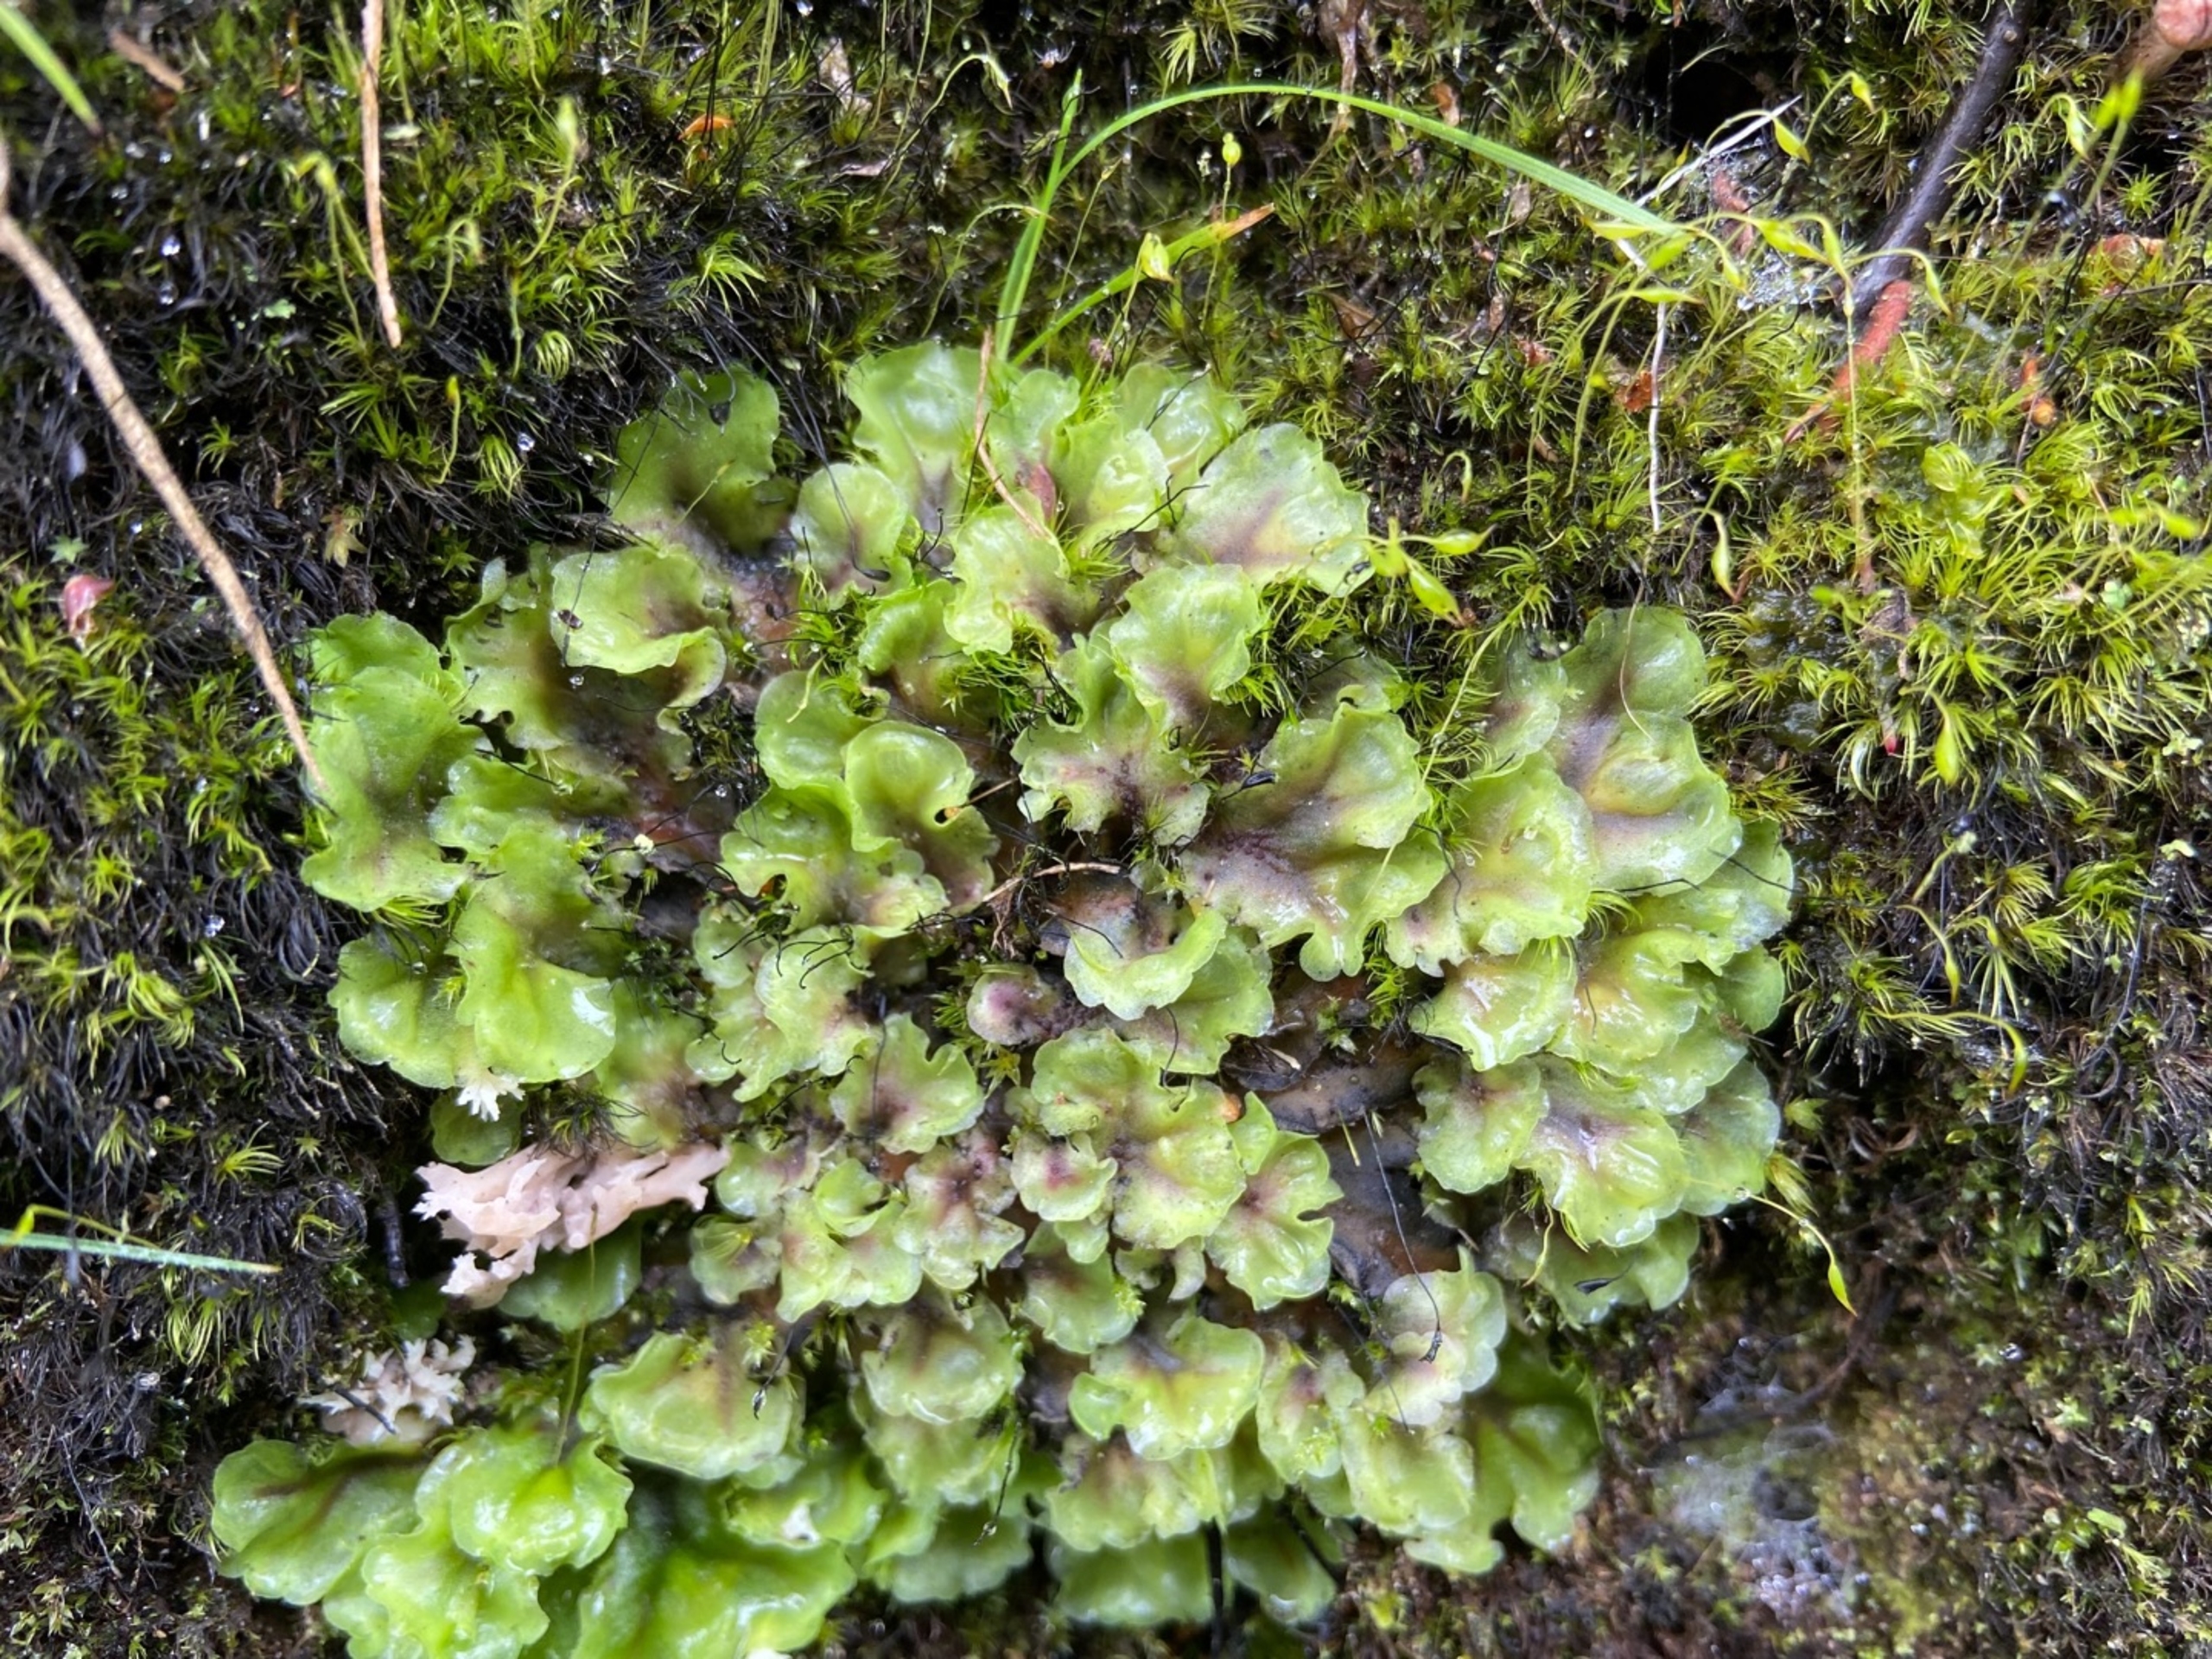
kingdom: Plantae
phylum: Marchantiophyta
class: Jungermanniopsida
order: Pelliales
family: Pelliaceae
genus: Pellia
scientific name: Pellia epiphylla
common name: Enbo ribbeløv
